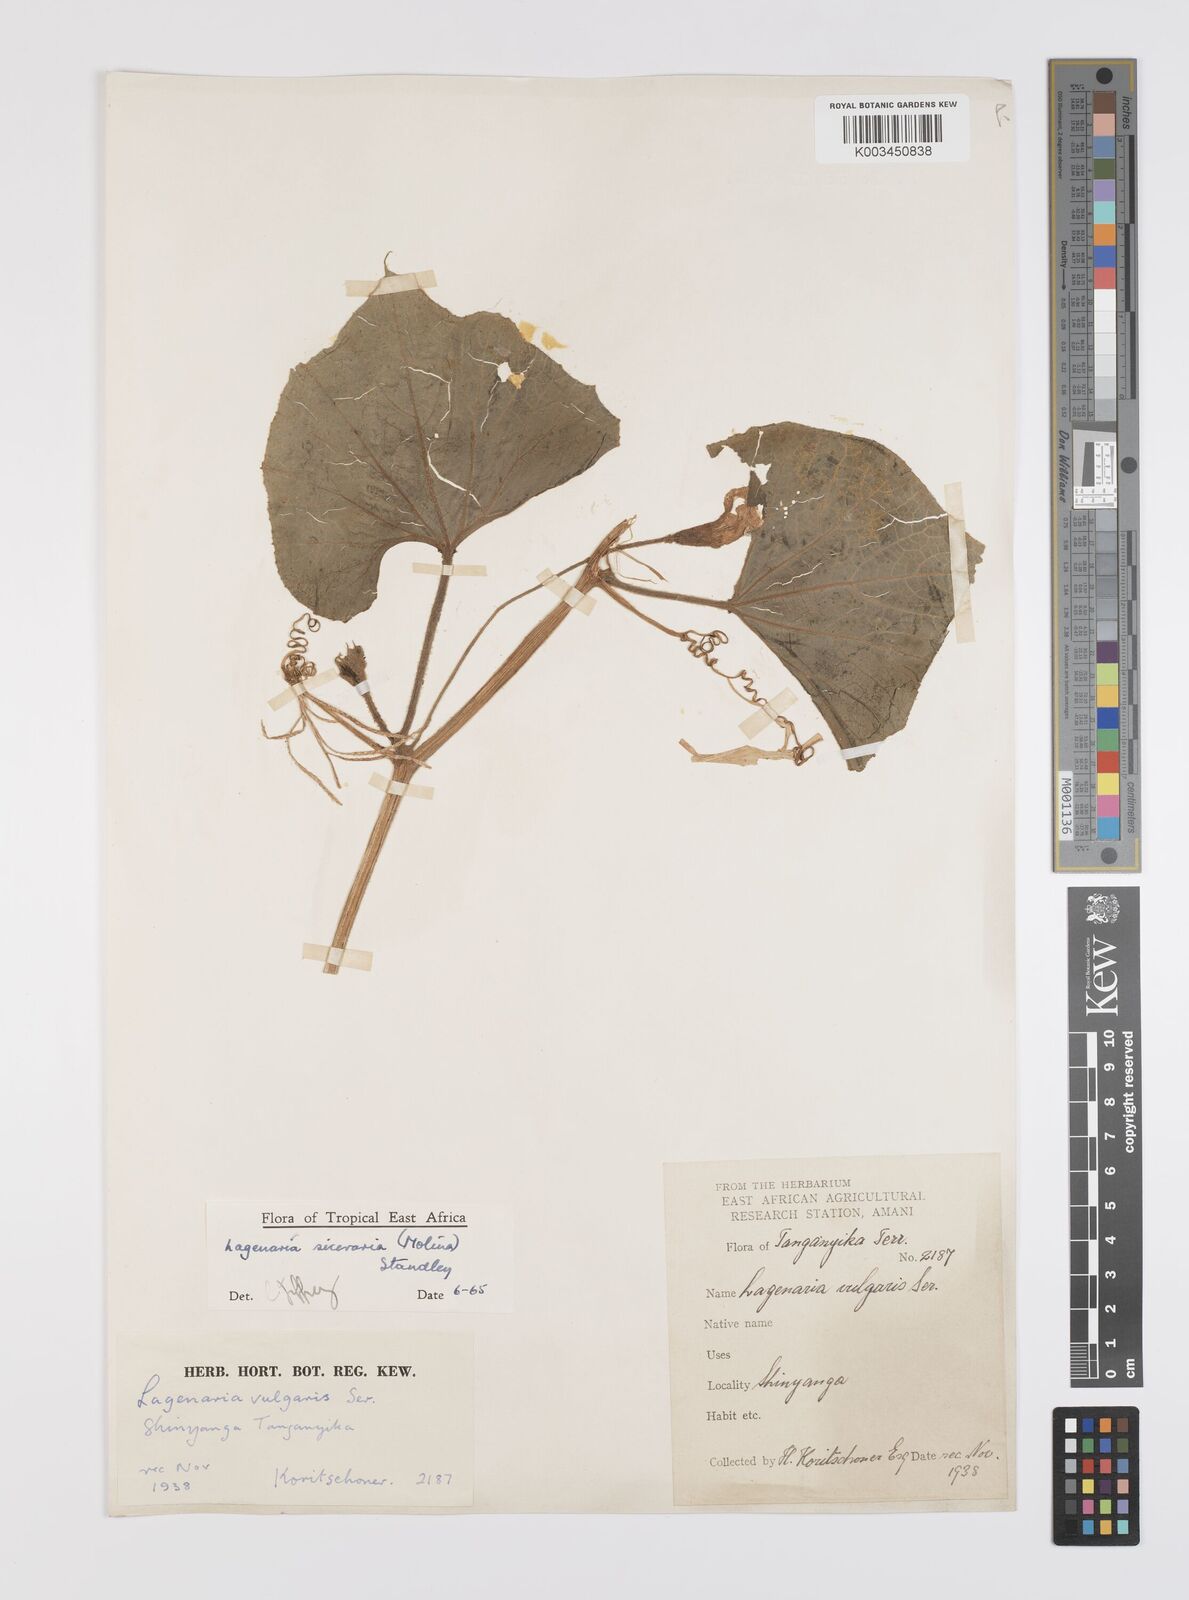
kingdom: Plantae
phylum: Tracheophyta
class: Magnoliopsida
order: Cucurbitales
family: Cucurbitaceae
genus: Lagenaria
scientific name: Lagenaria siceraria
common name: Bottle gourd
